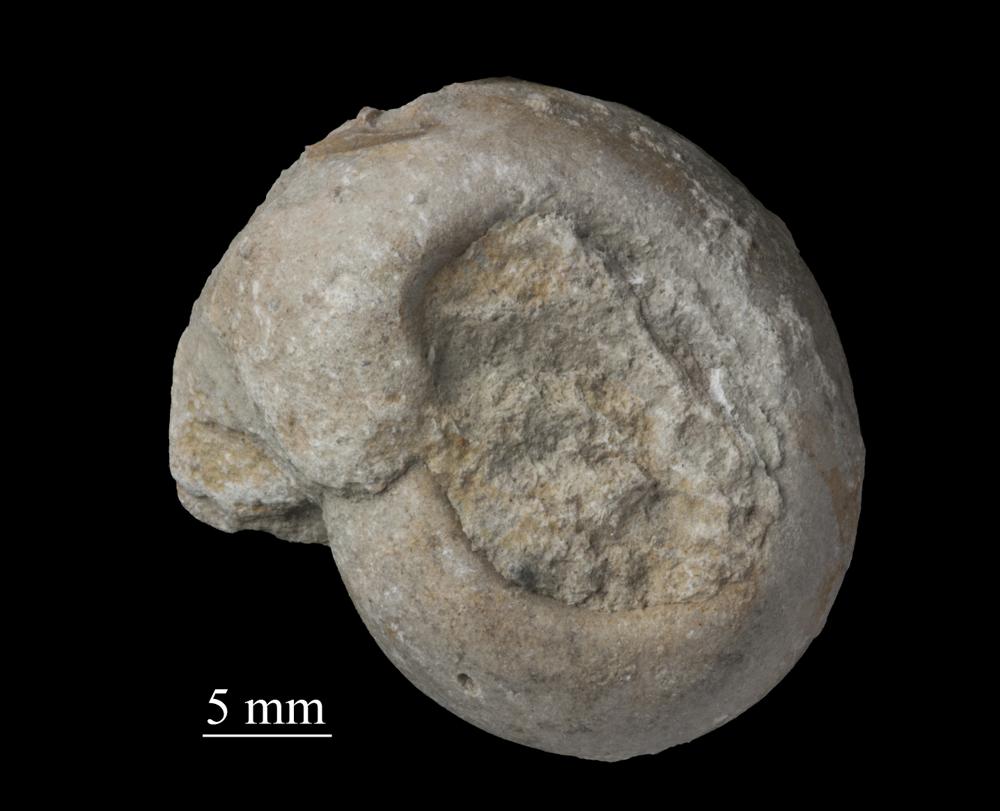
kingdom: Animalia
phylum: Mollusca
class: Gastropoda
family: Bellerophontidae
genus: Bellerophon
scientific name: Bellerophon
